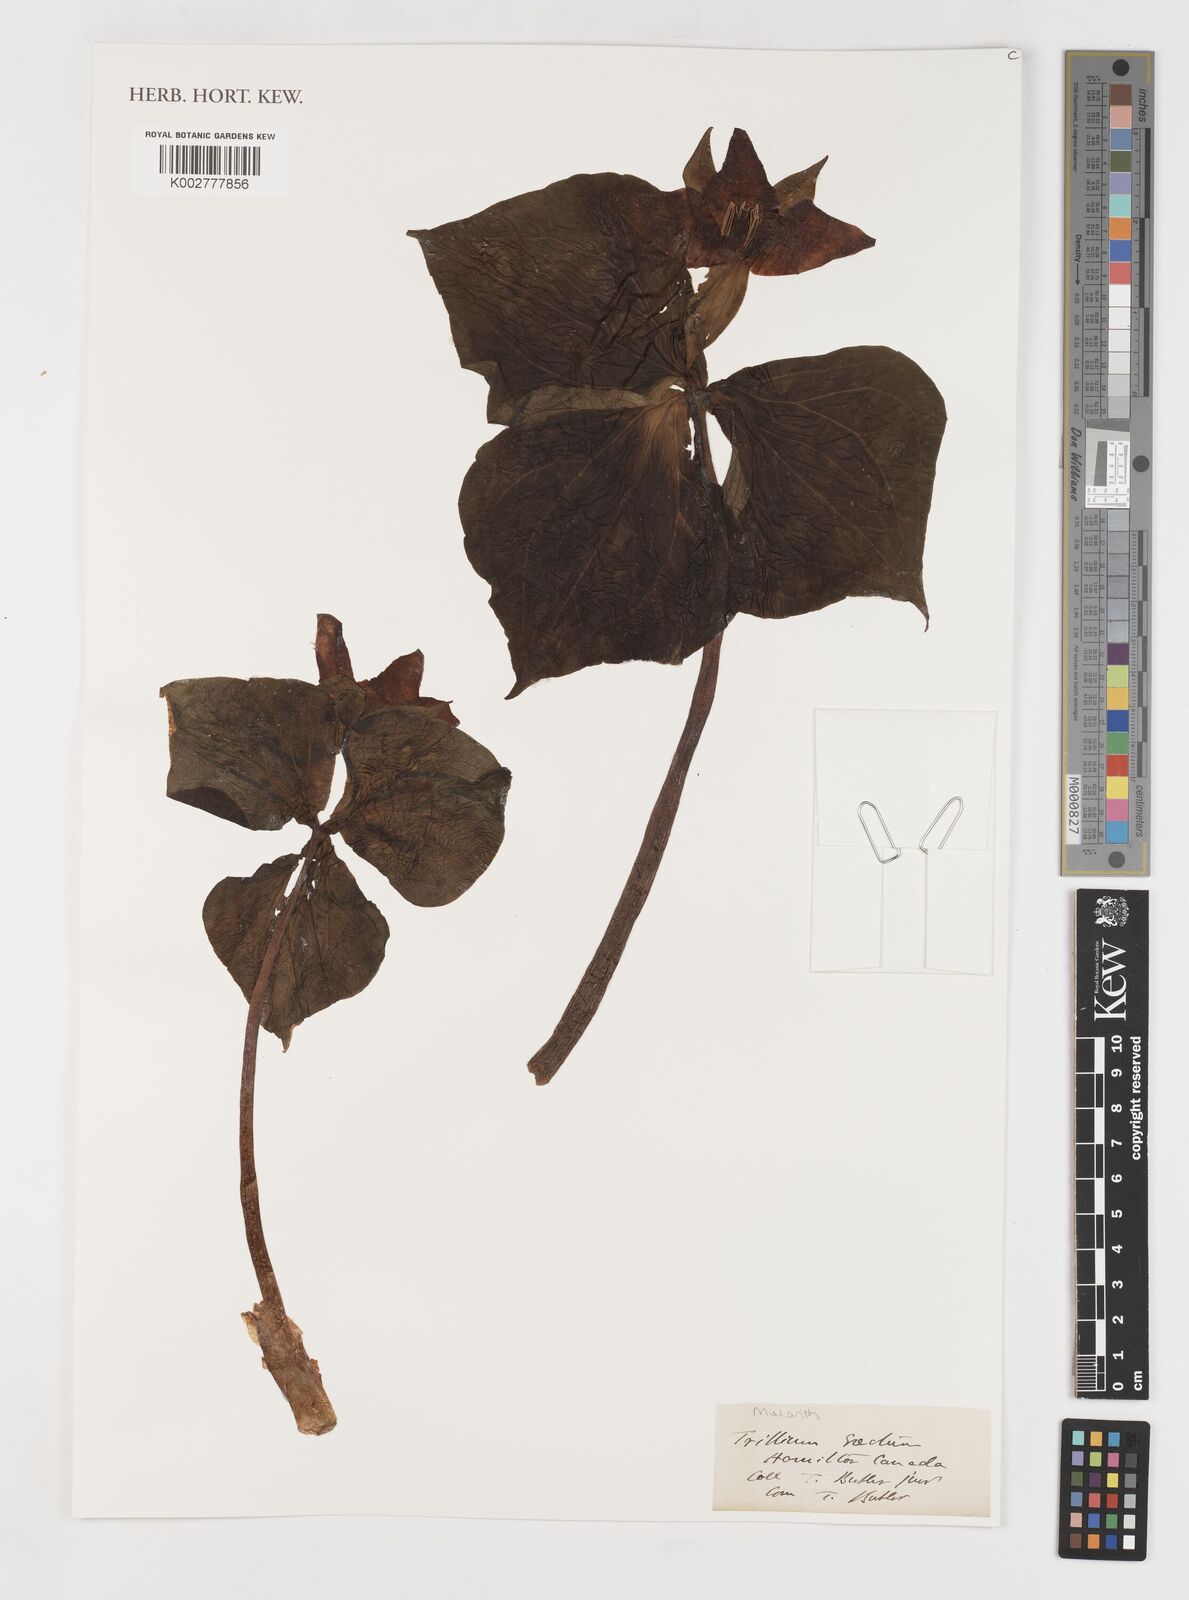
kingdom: Plantae
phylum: Tracheophyta
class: Liliopsida
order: Liliales
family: Melanthiaceae
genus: Trillium
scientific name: Trillium erectum
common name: Purple trillium
